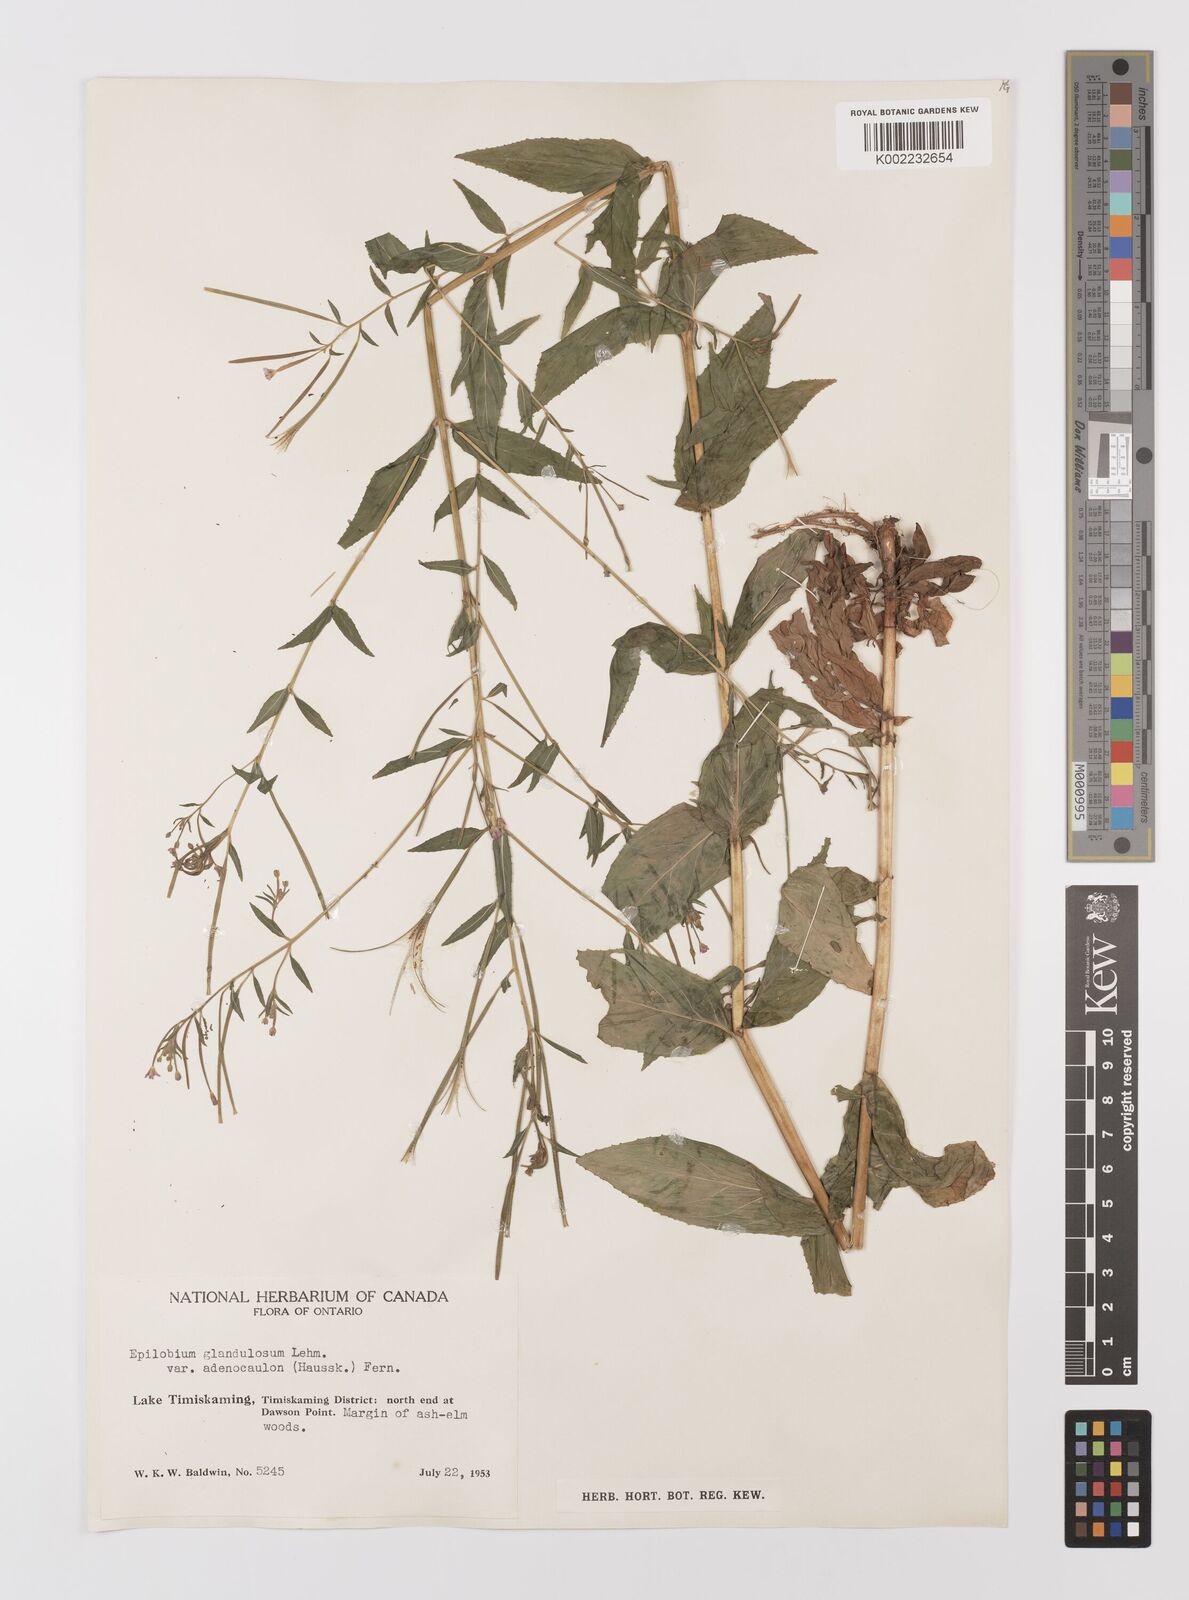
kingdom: Plantae
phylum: Tracheophyta
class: Magnoliopsida
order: Myrtales
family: Onagraceae
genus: Epilobium
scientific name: Epilobium ciliatum
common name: American willowherb
